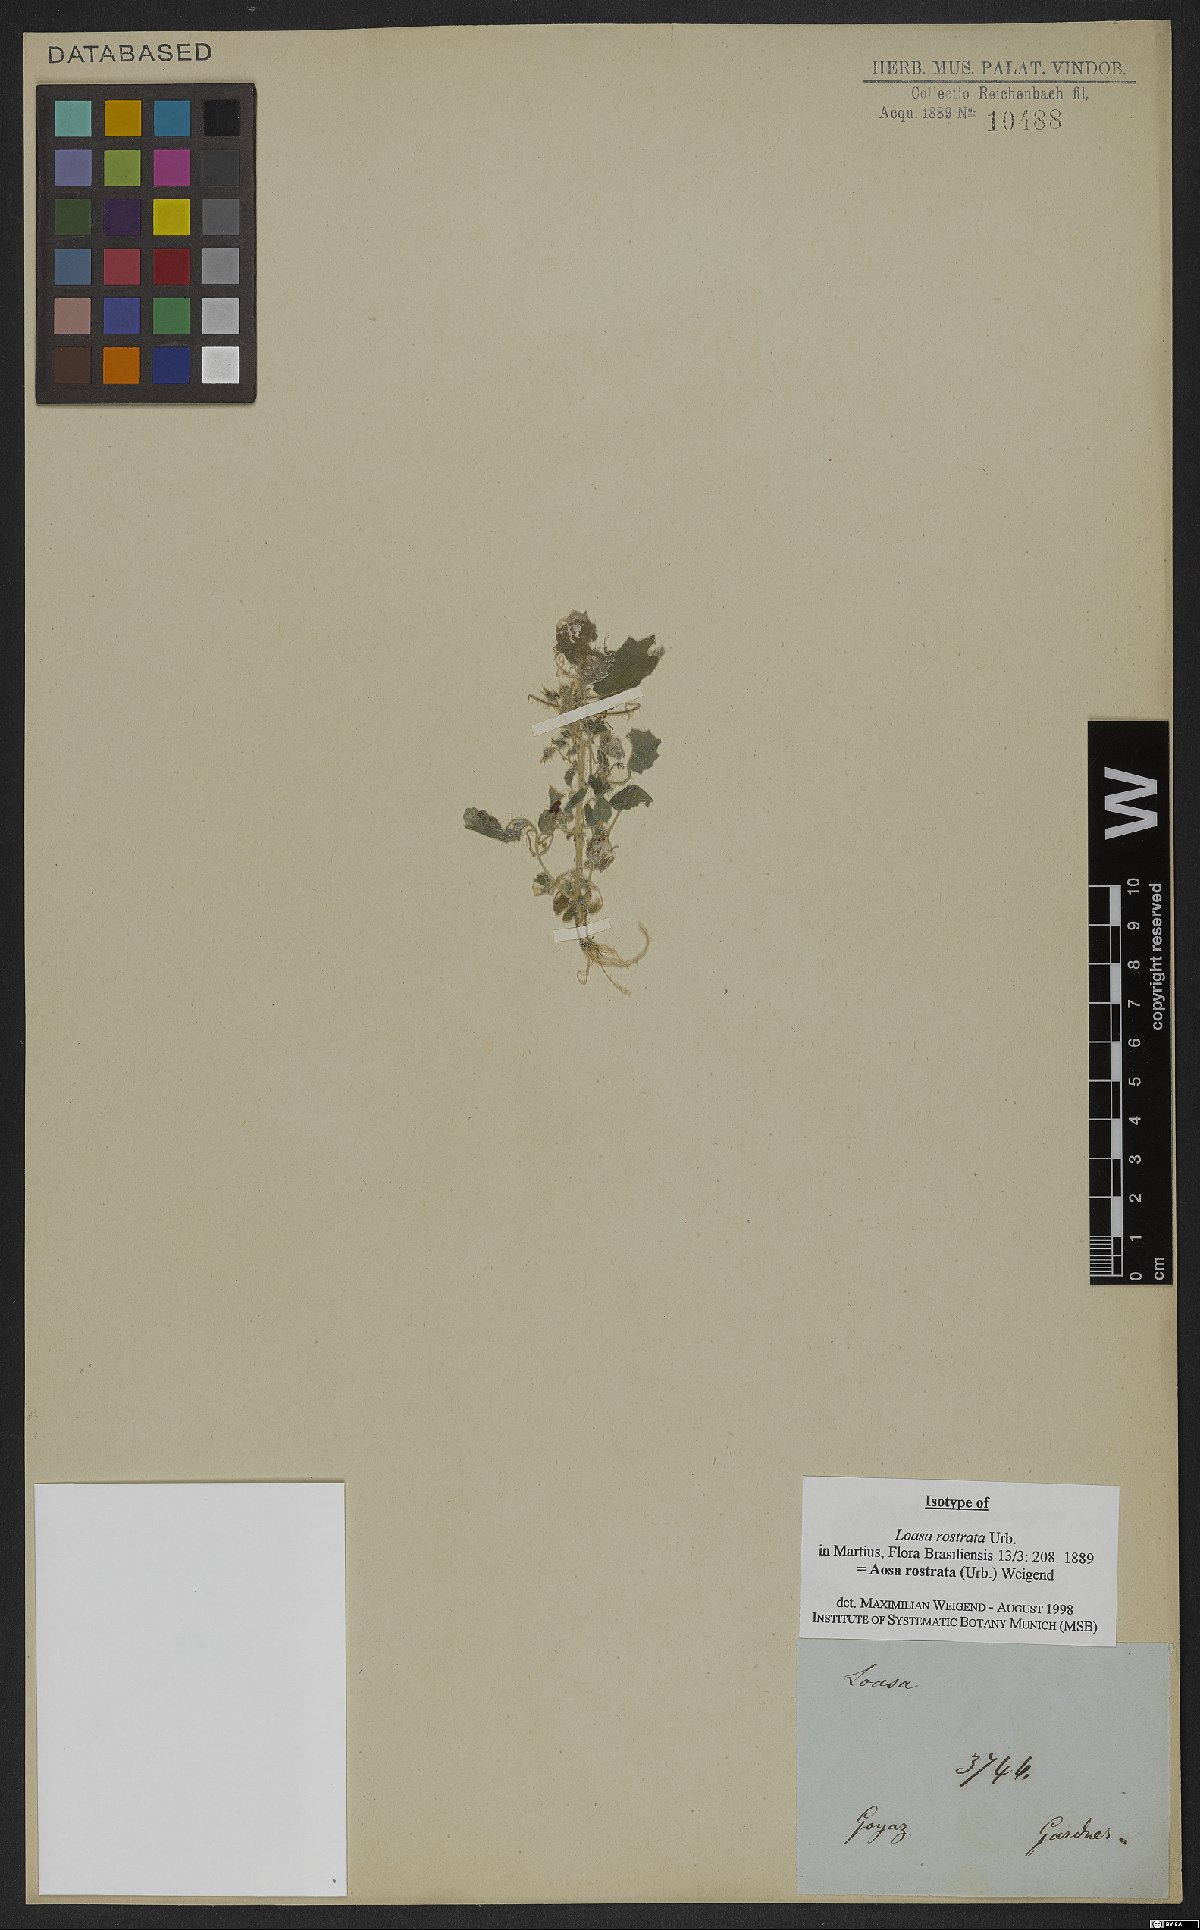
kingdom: Plantae
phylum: Tracheophyta
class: Magnoliopsida
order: Cornales
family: Loasaceae
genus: Aosa
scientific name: Aosa rostrata
